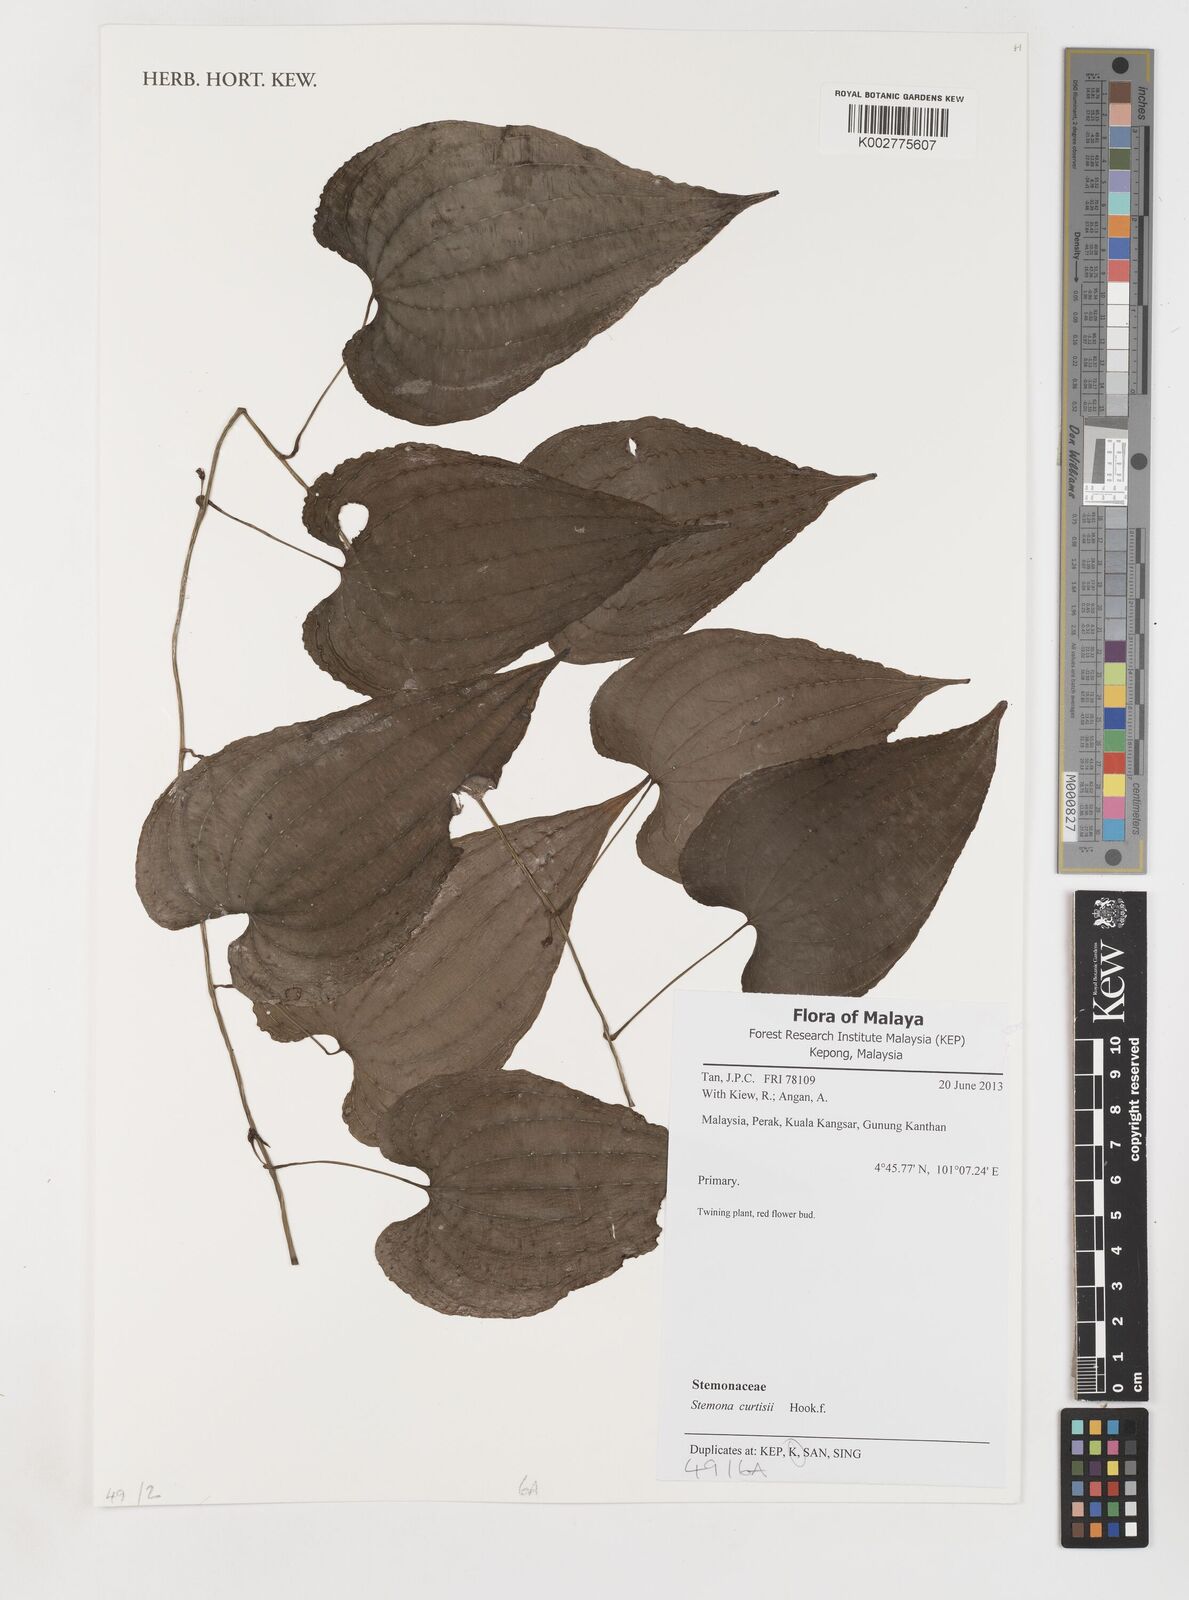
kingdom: Plantae
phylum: Tracheophyta
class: Liliopsida
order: Pandanales
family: Stemonaceae
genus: Stemona
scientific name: Stemona tuberosa
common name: Stemona
